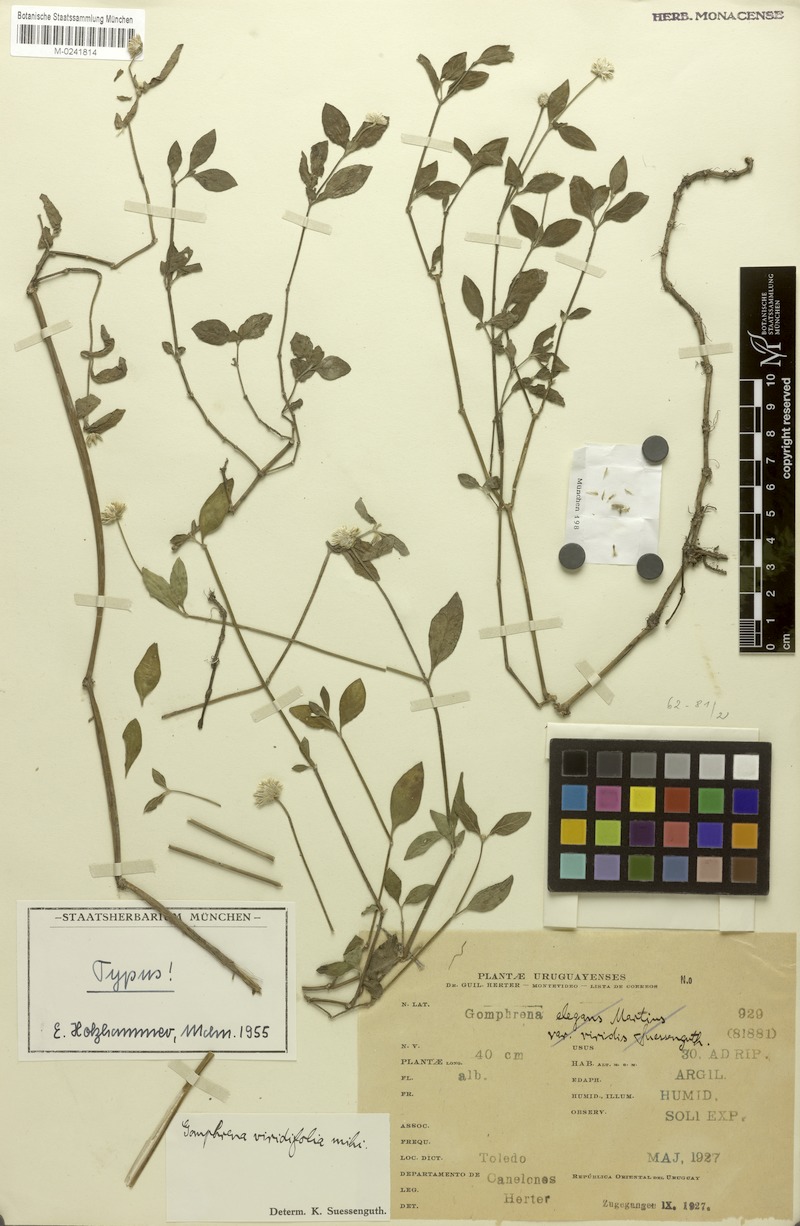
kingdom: Plantae
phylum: Tracheophyta
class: Magnoliopsida
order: Caryophyllales
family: Amaranthaceae
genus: Gomphrena
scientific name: Gomphrena elegans
